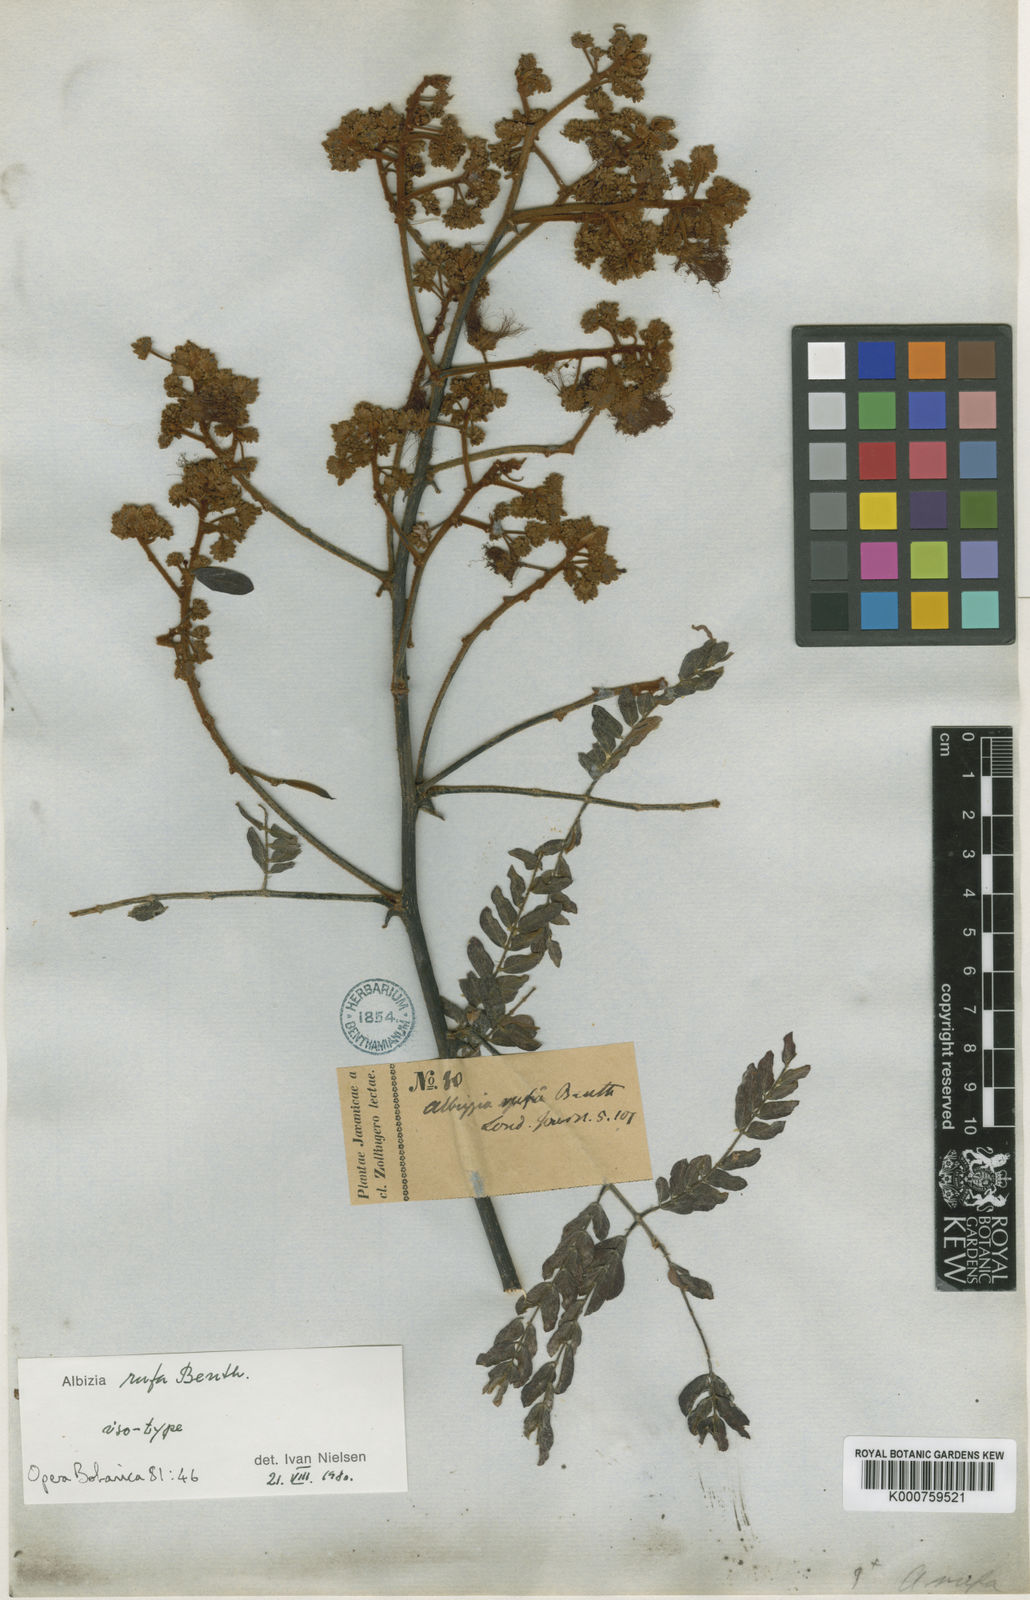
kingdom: Plantae
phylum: Tracheophyta
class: Magnoliopsida
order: Fabales
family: Fabaceae
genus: Albizia
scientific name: Albizia rufa
